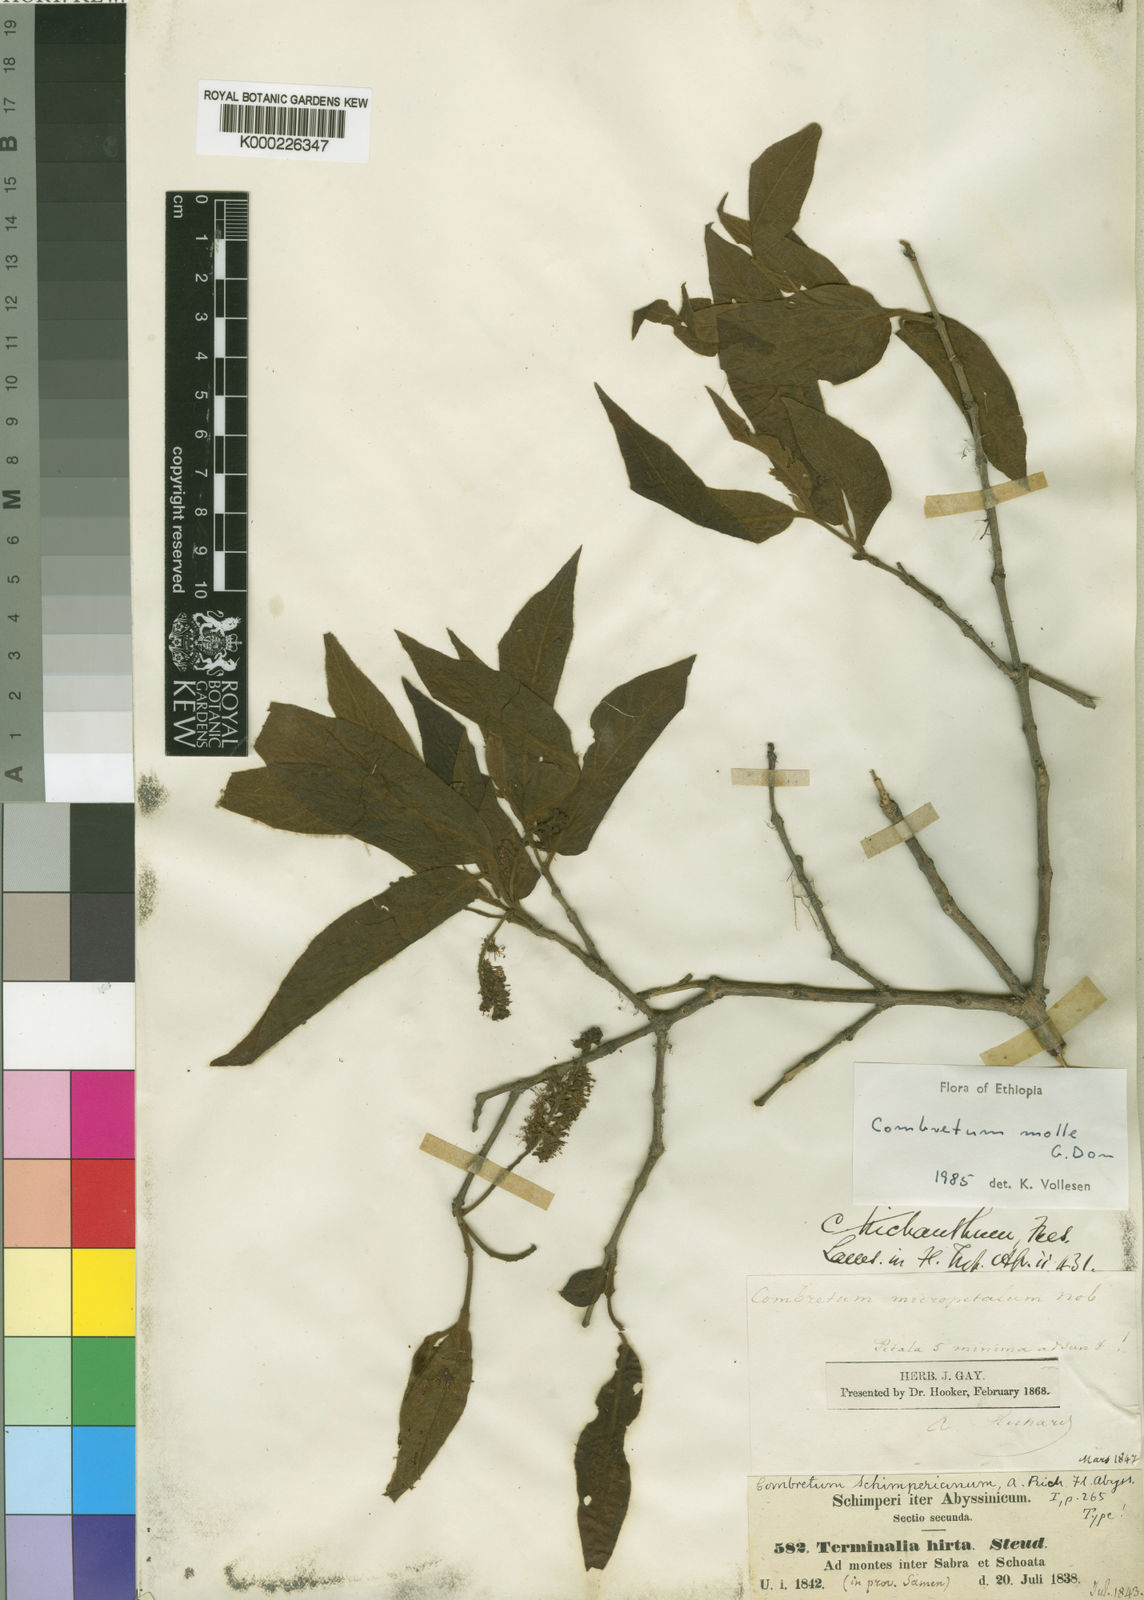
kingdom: Plantae
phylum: Tracheophyta
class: Magnoliopsida
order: Myrtales
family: Combretaceae
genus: Combretum
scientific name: Combretum molle
